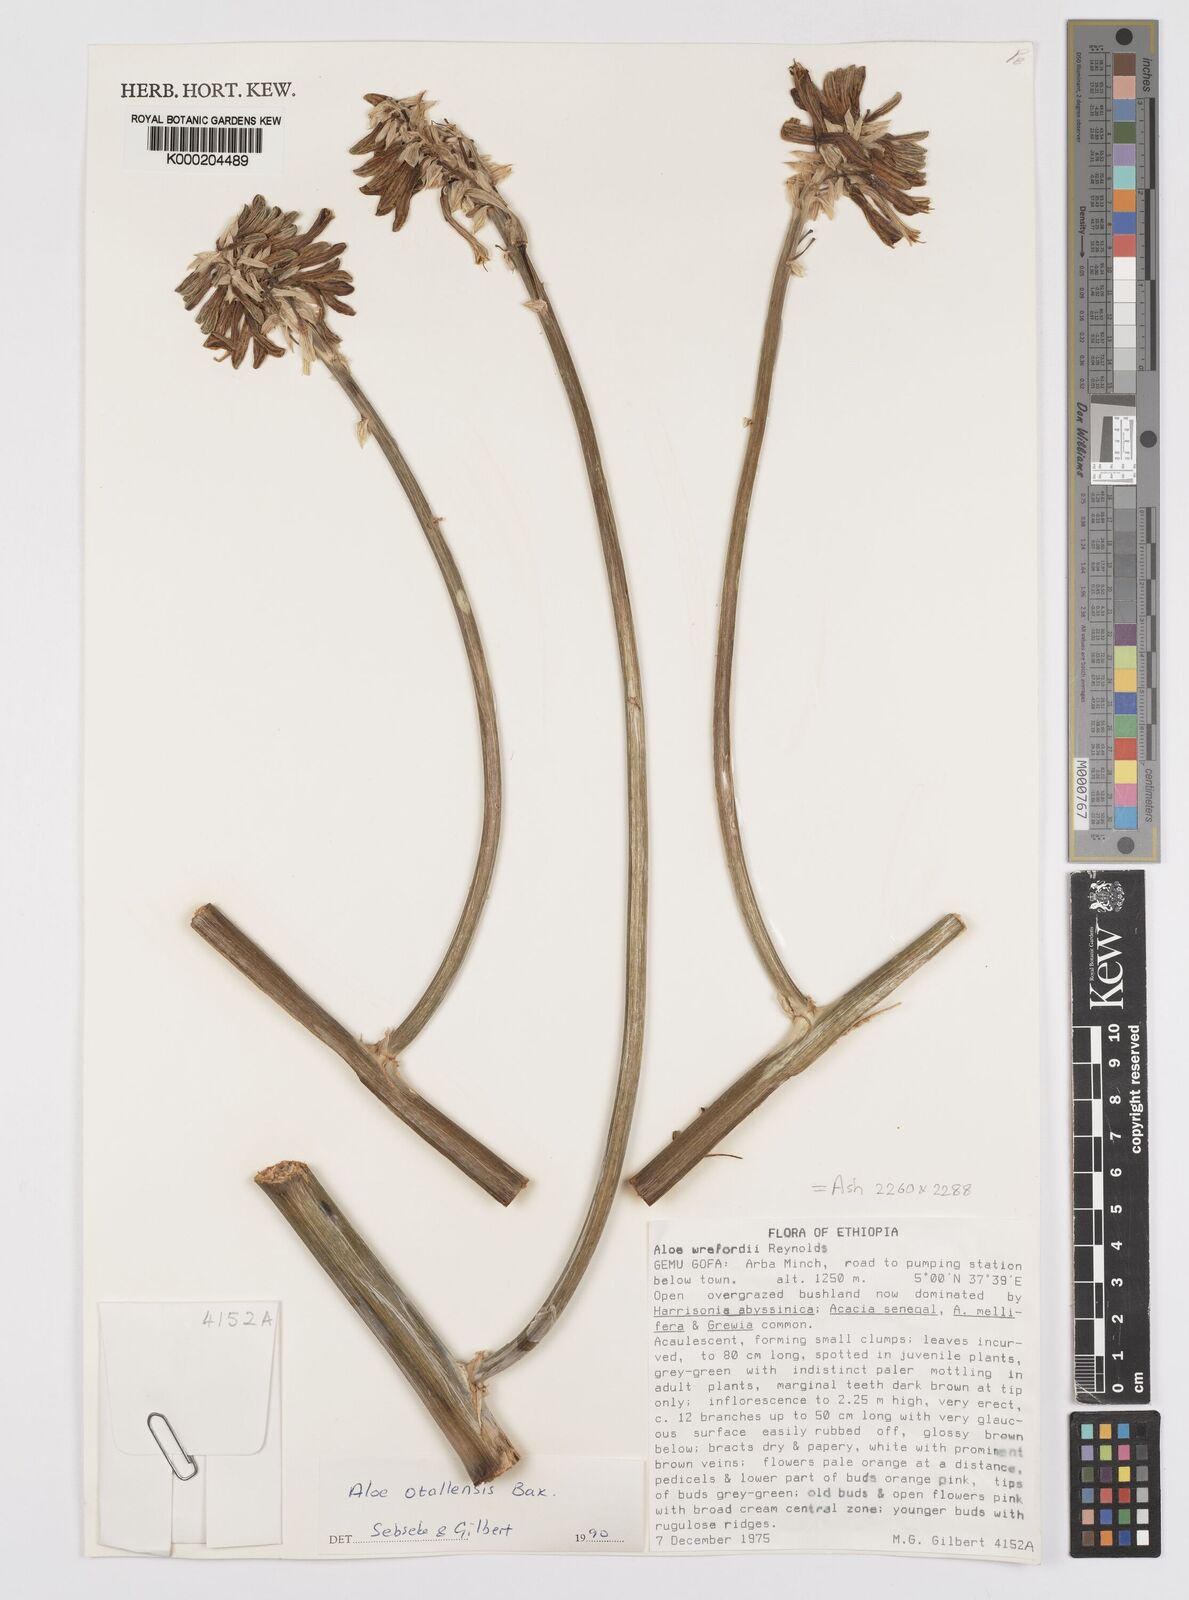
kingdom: Plantae
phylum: Tracheophyta
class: Liliopsida
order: Asparagales
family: Asphodelaceae
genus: Aloe
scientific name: Aloe otallensis
